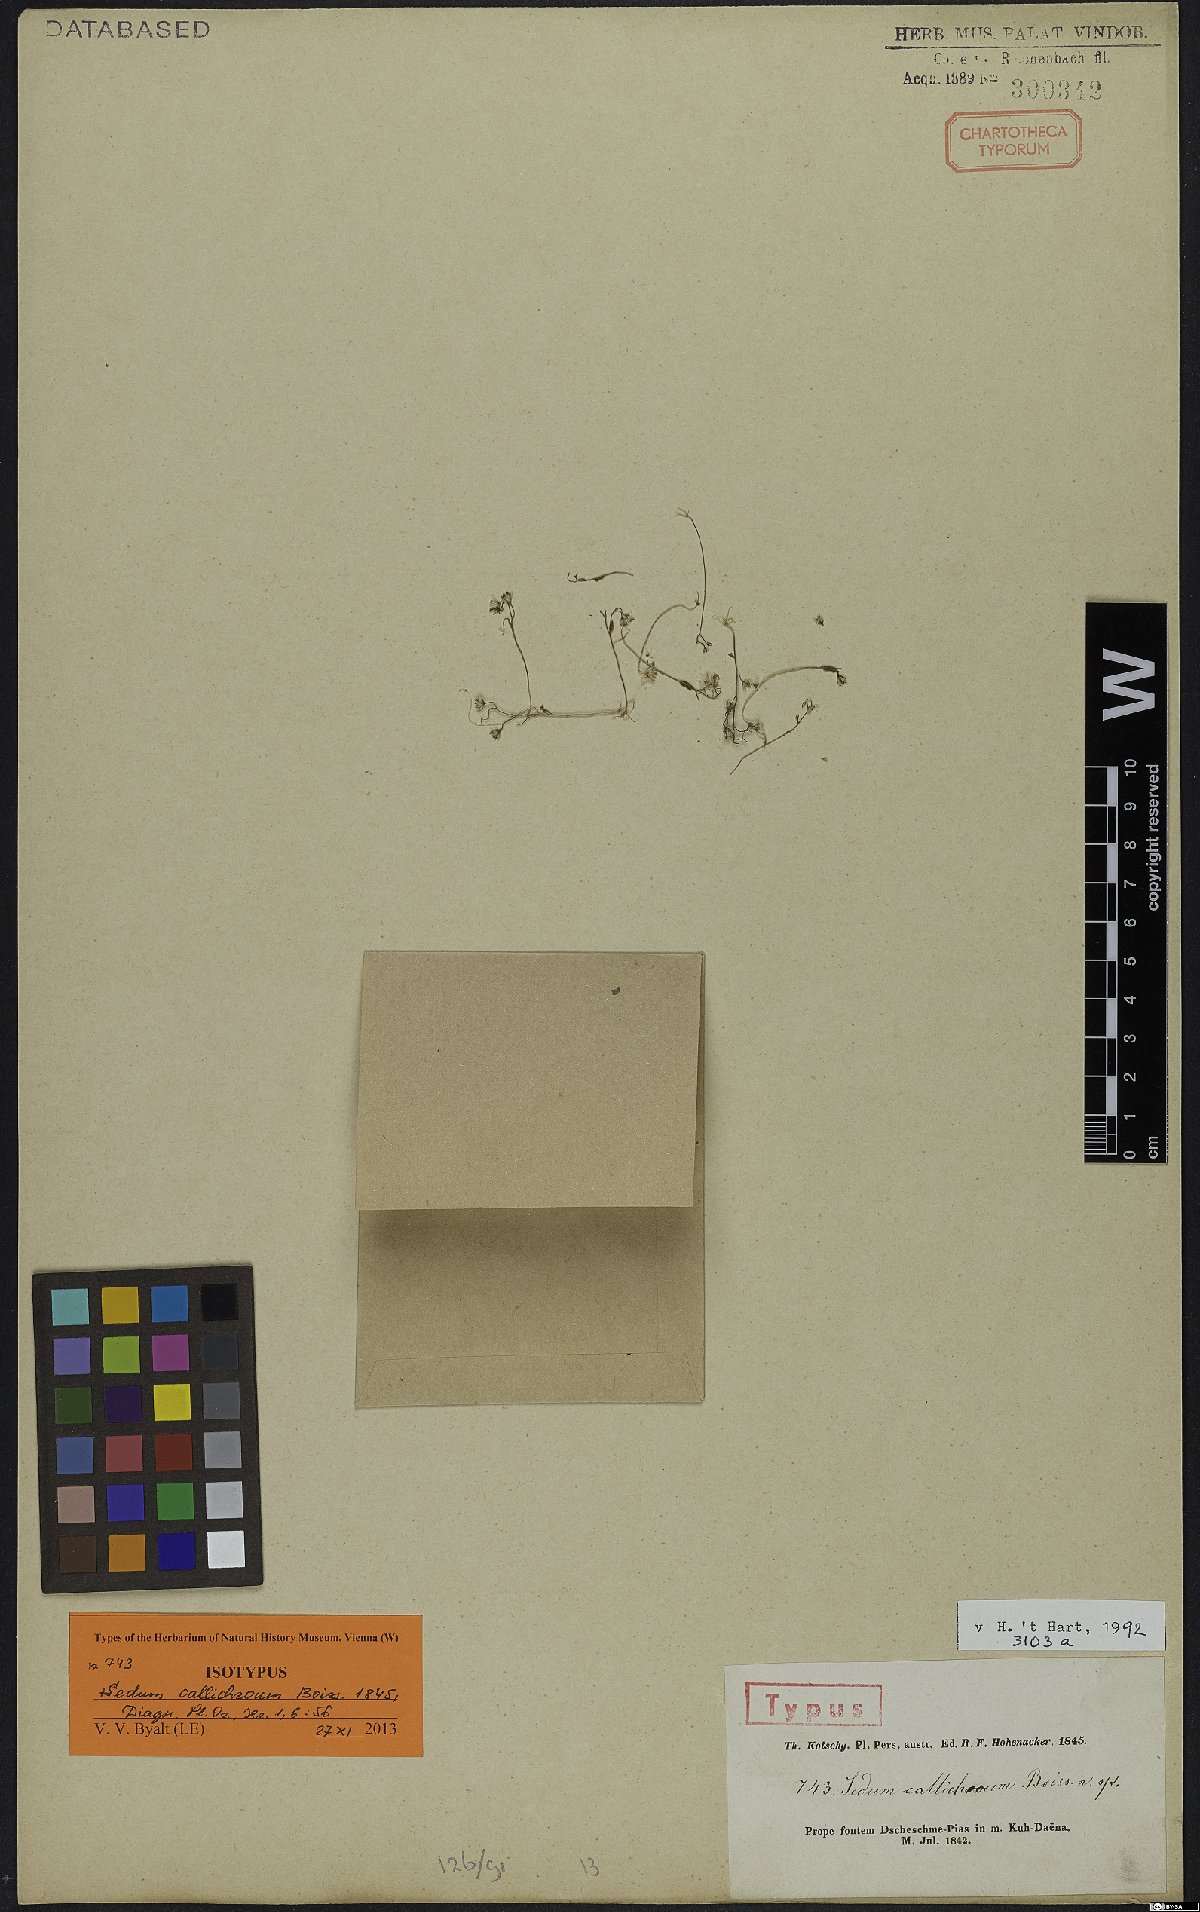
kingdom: Plantae
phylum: Tracheophyta
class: Magnoliopsida
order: Saxifragales
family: Crassulaceae
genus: Sedum
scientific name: Sedum callichroum
